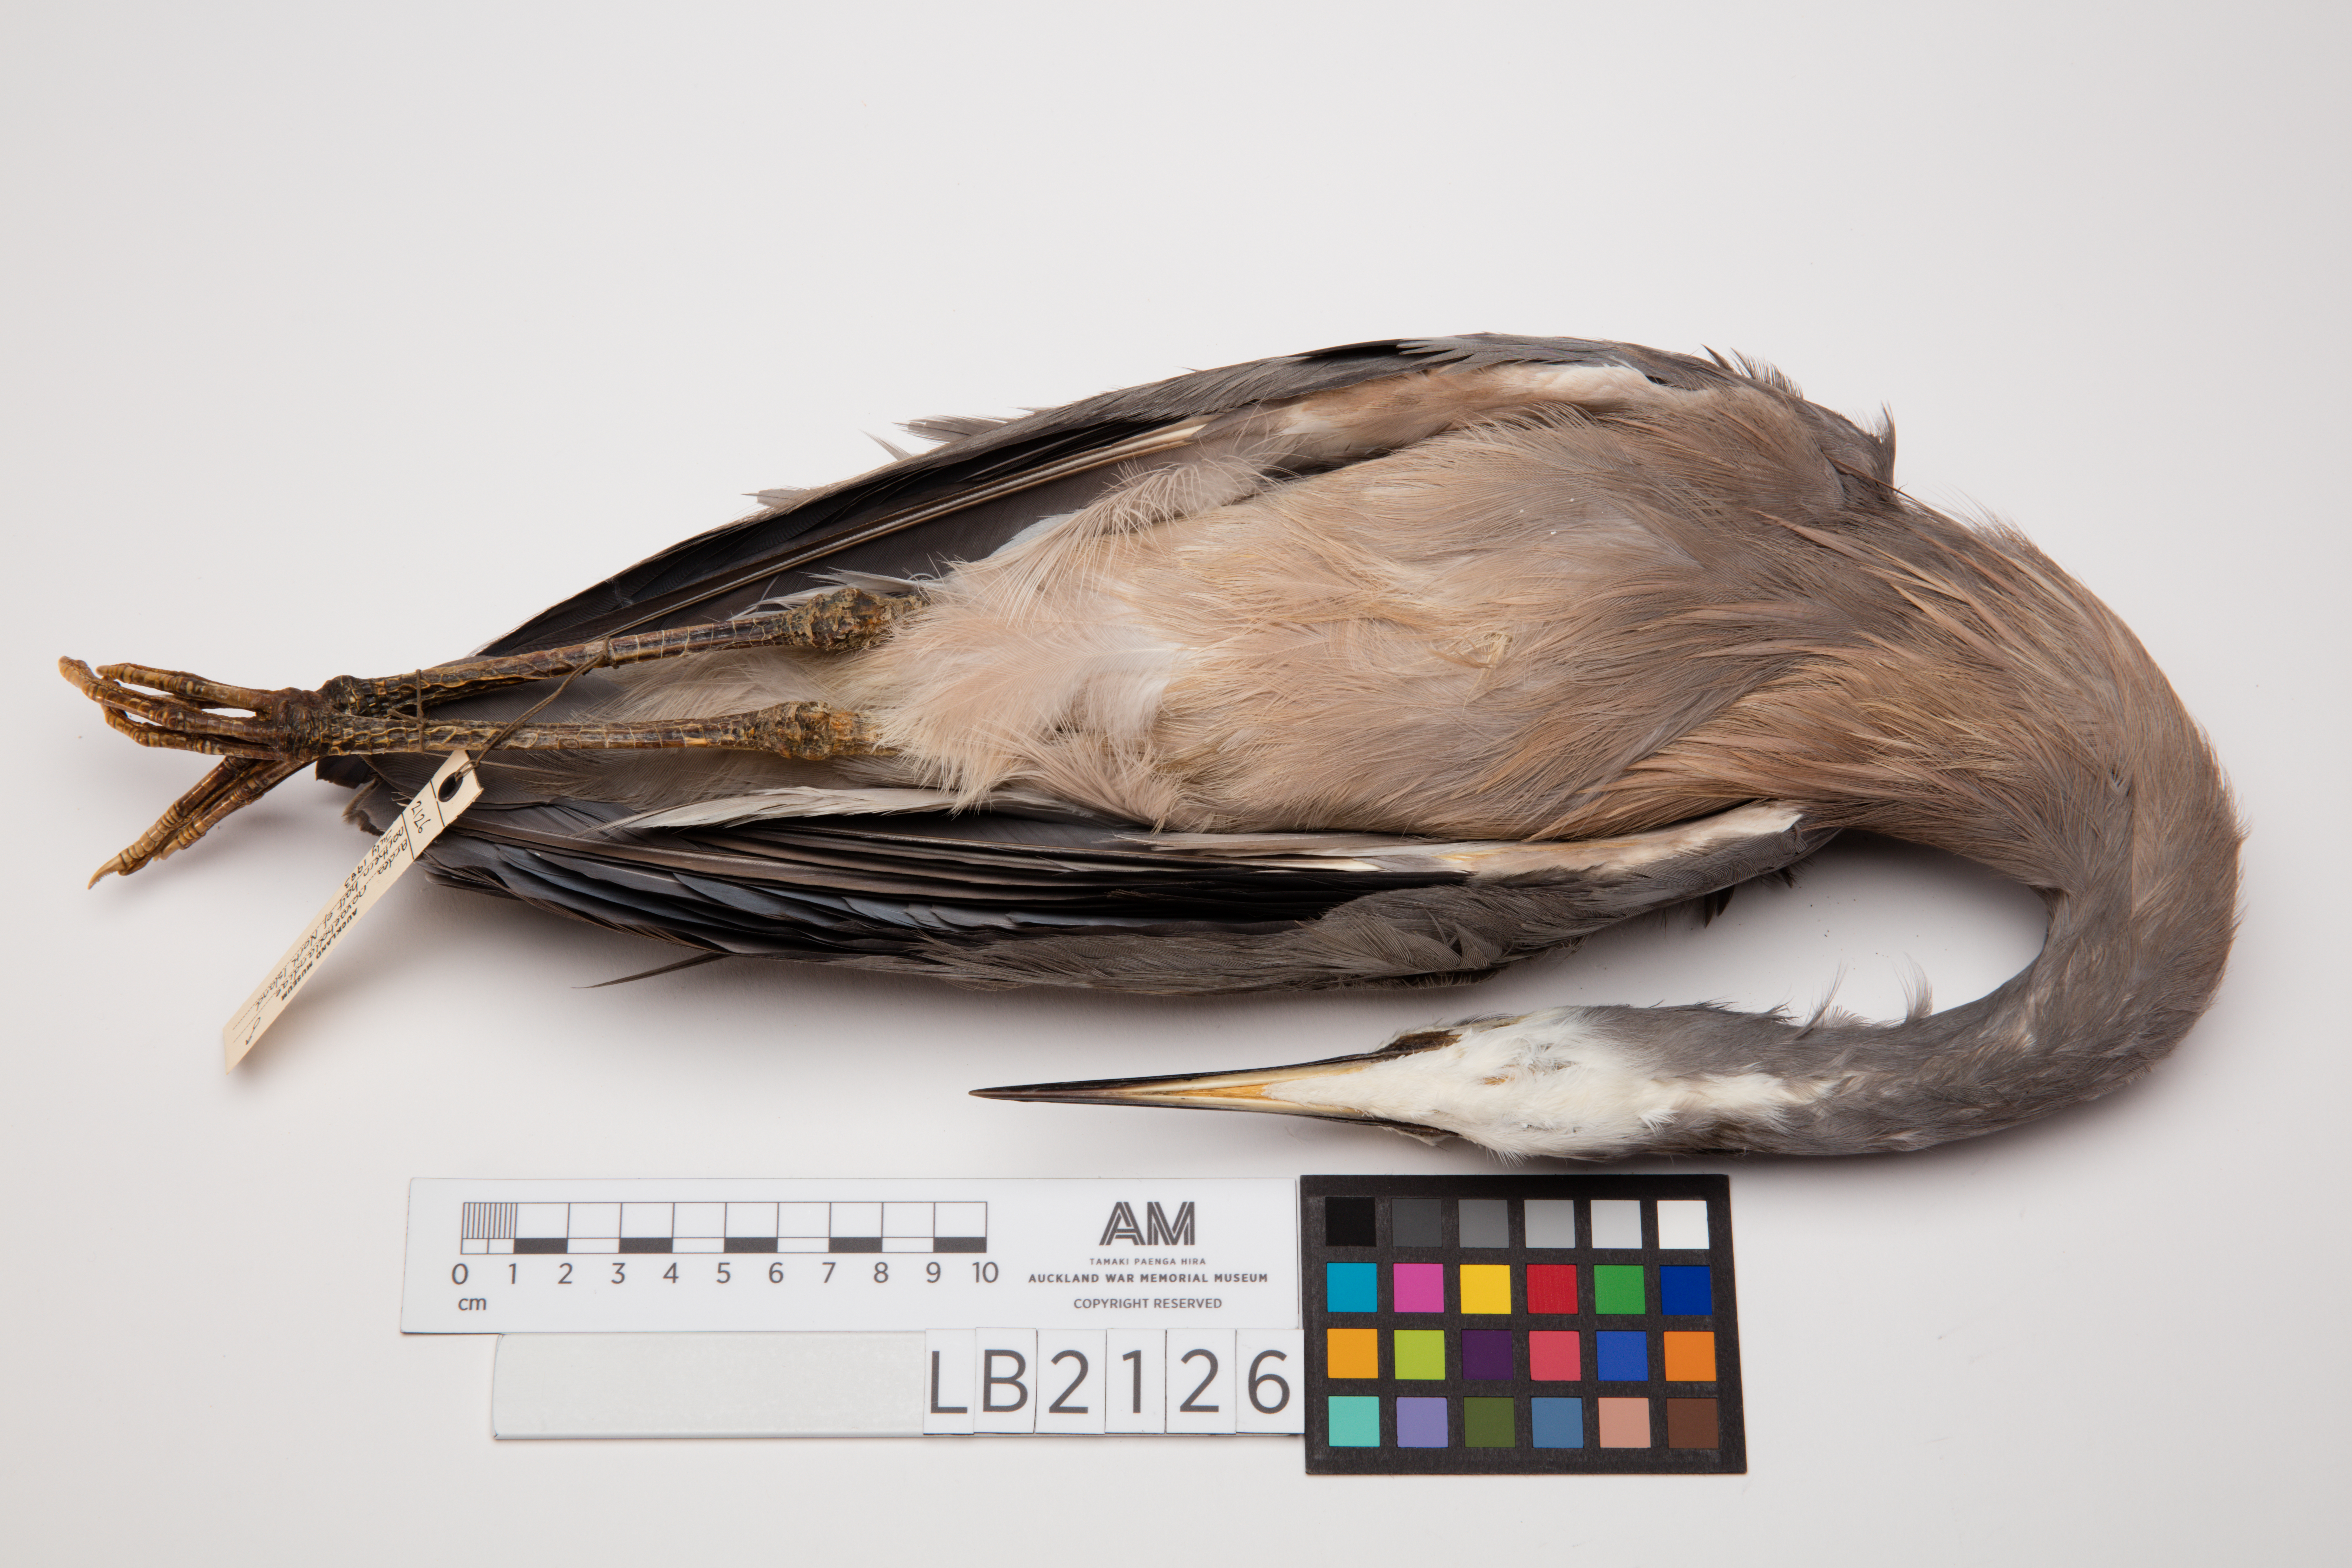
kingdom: Animalia
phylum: Chordata
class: Aves
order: Pelecaniformes
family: Ardeidae
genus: Egretta
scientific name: Egretta novaehollandiae
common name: White-faced heron
